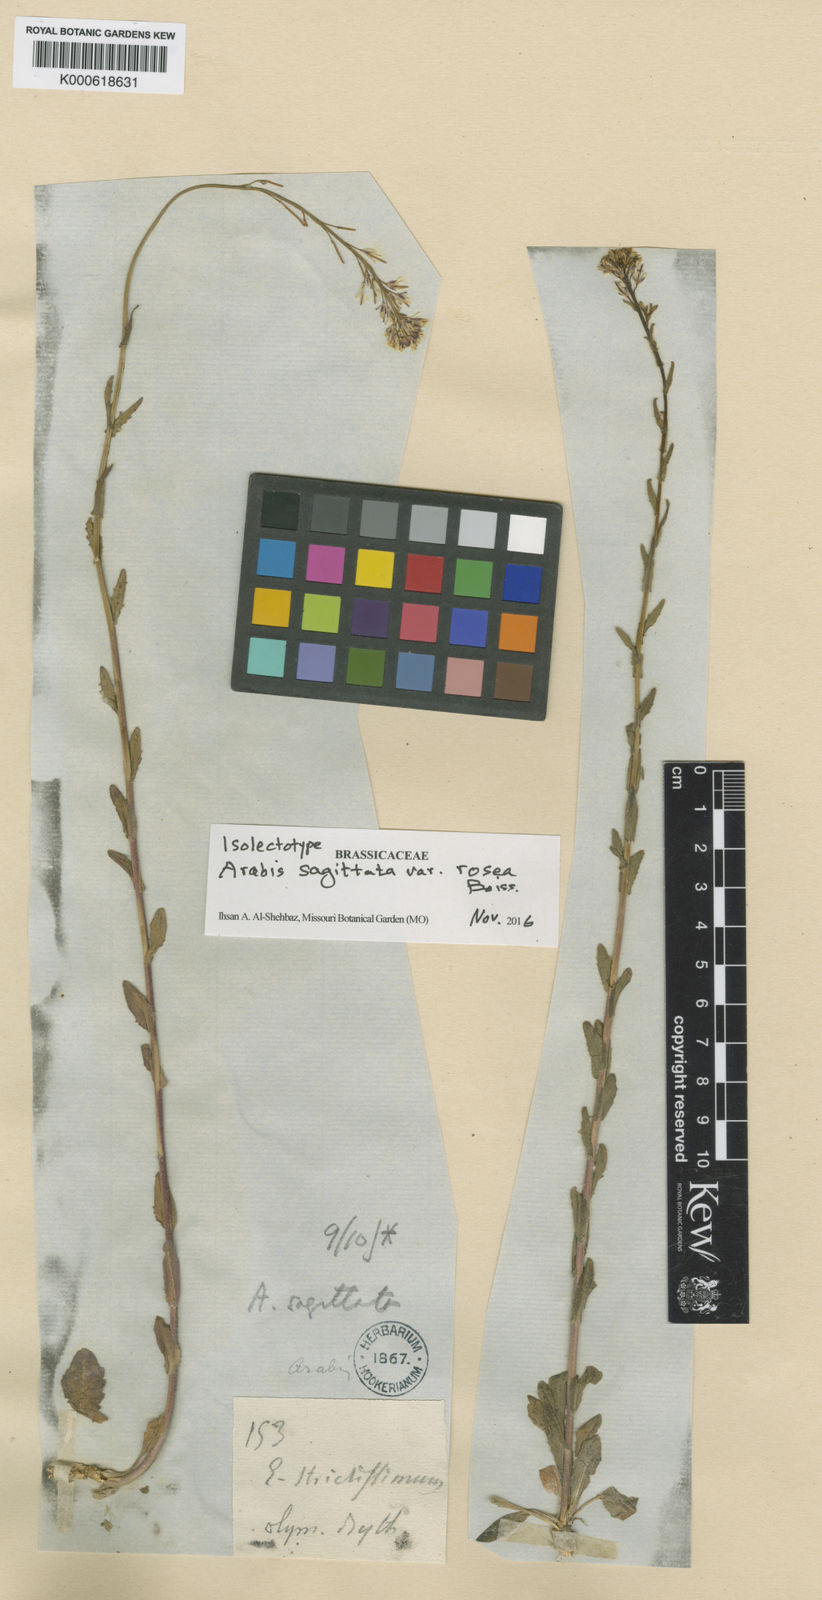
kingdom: Plantae
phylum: Tracheophyta
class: Magnoliopsida
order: Brassicales
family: Brassicaceae
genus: Arabis
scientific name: Arabis
